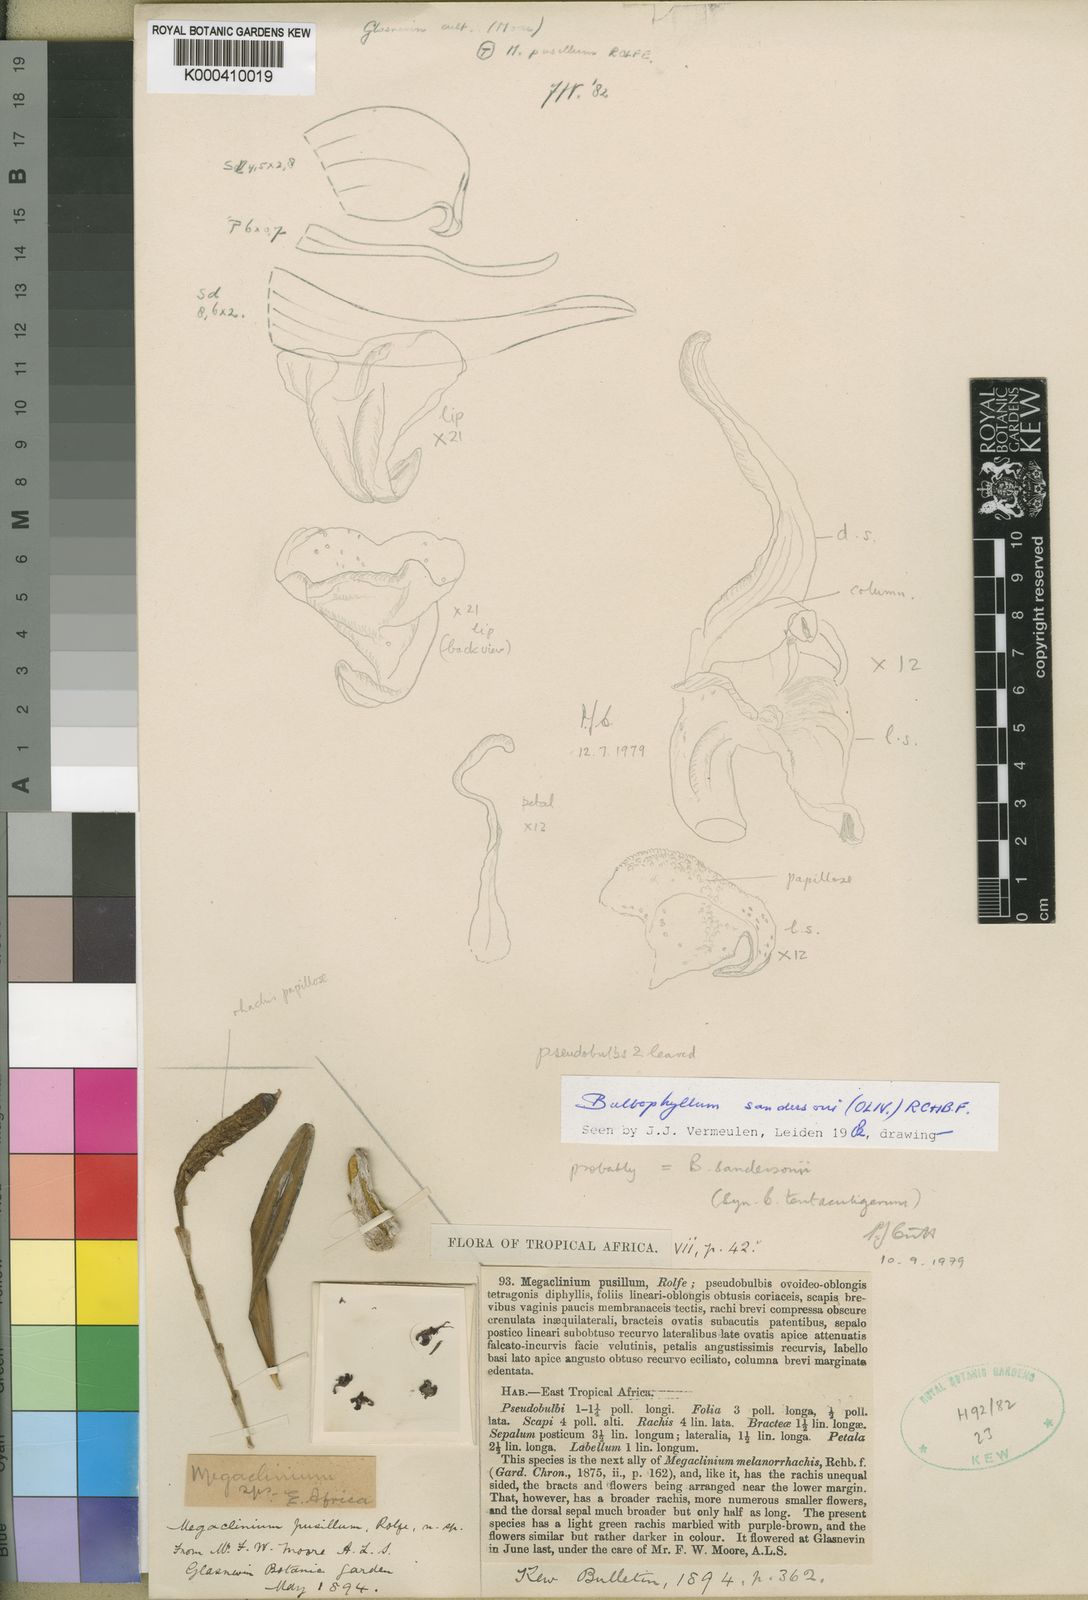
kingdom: Plantae
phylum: Tracheophyta
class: Liliopsida
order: Asparagales
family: Orchidaceae
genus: Bulbophyllum
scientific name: Bulbophyllum sandersonii
